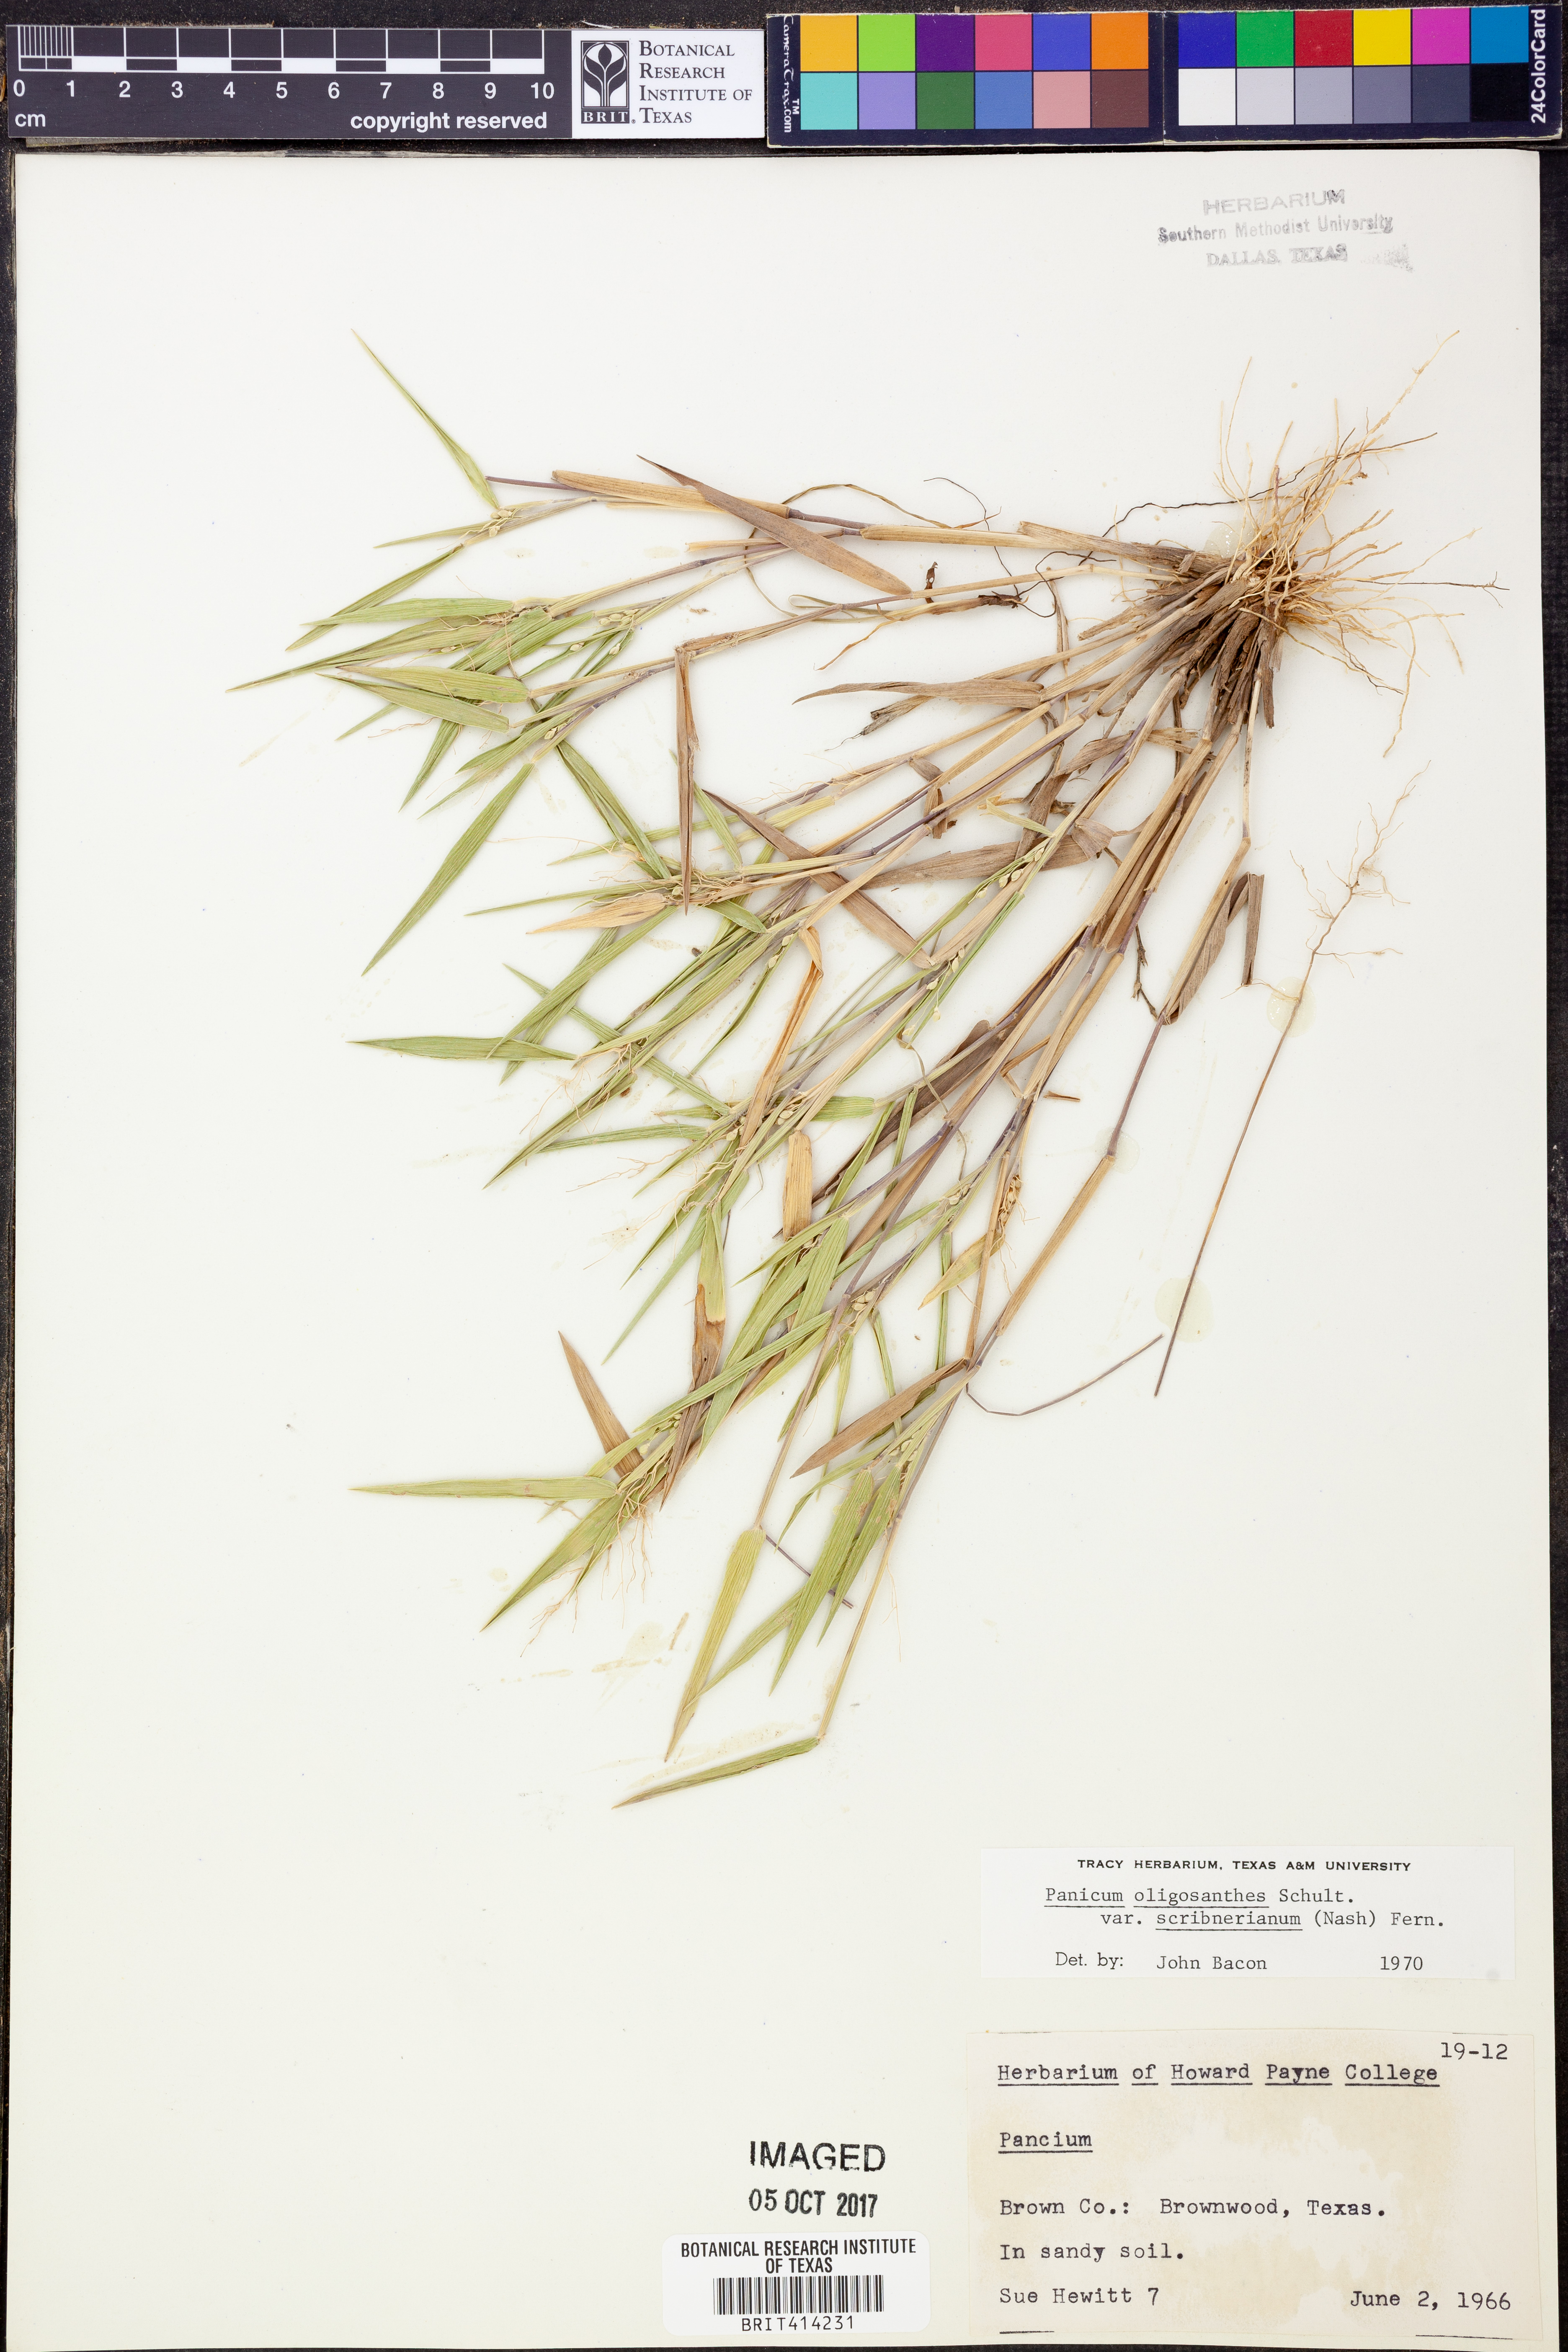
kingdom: Plantae
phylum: Tracheophyta
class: Liliopsida
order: Poales
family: Poaceae
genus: Dichanthelium
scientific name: Dichanthelium scribnerianum
